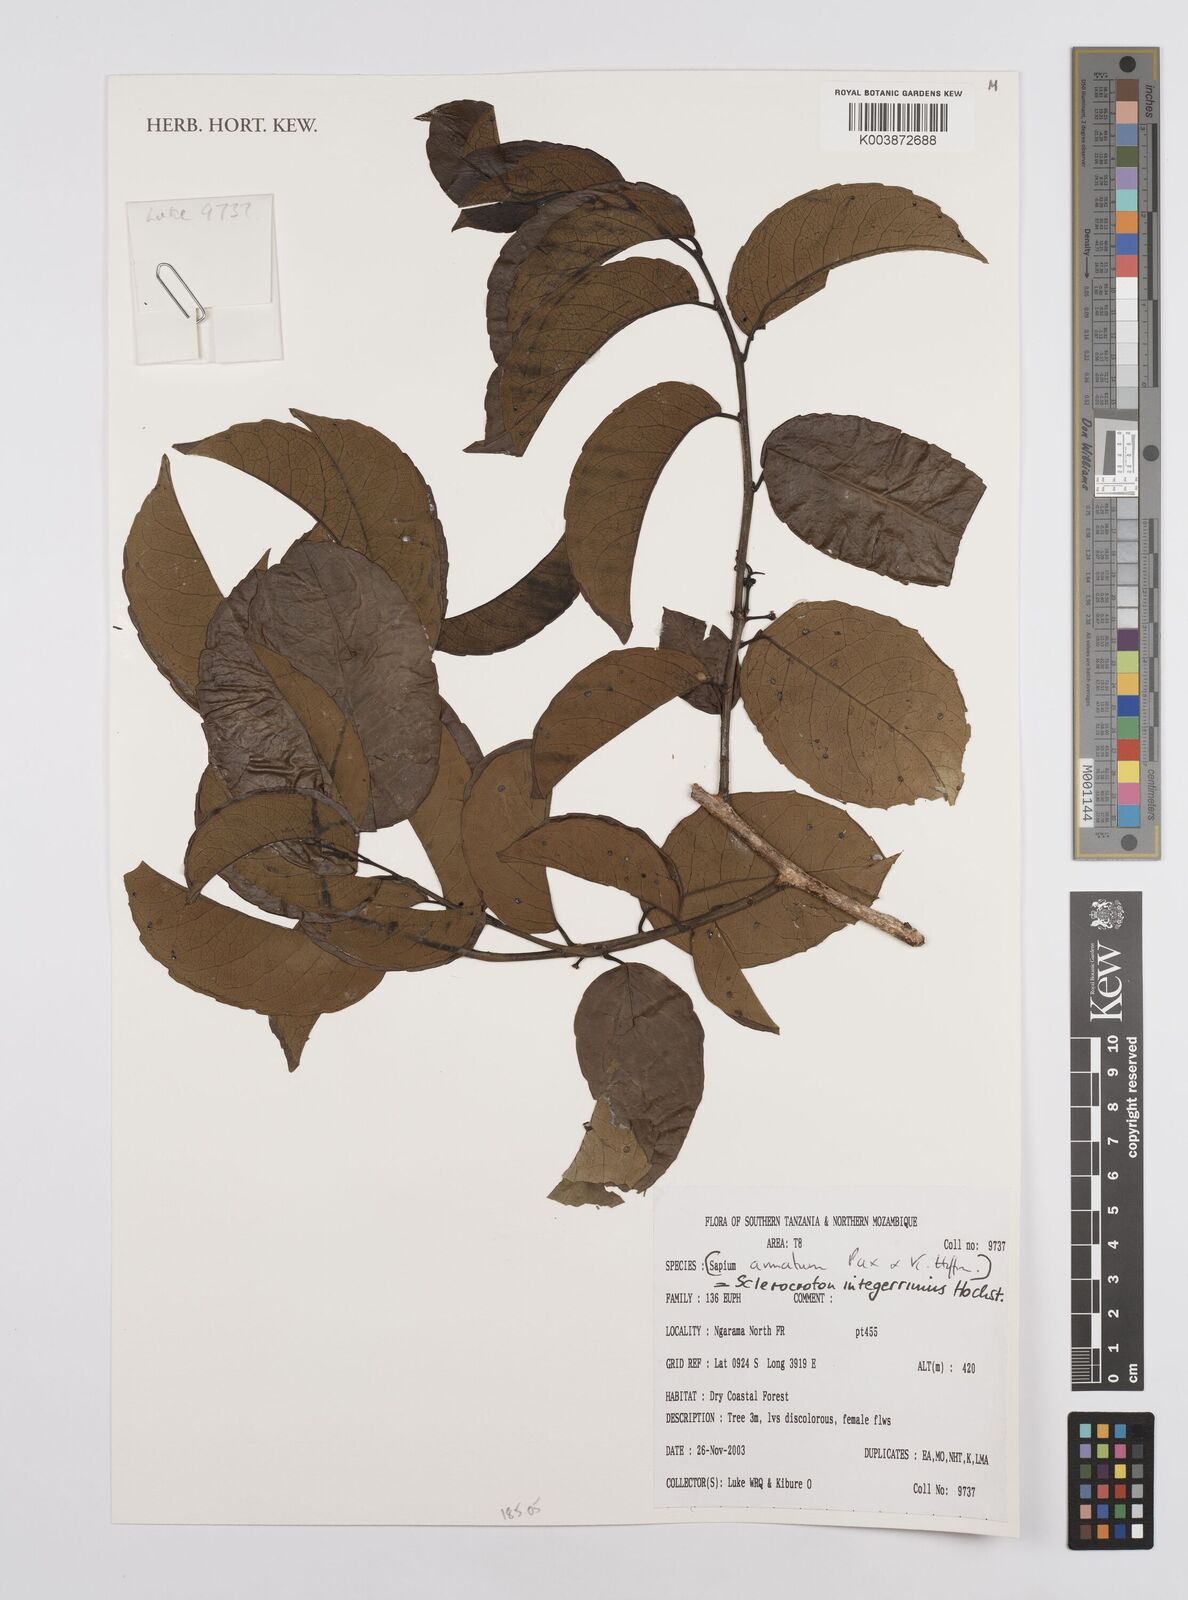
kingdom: Plantae
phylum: Tracheophyta
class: Magnoliopsida
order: Malpighiales
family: Euphorbiaceae
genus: Sclerocroton
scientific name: Sclerocroton integerrimus
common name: Duiker berry
